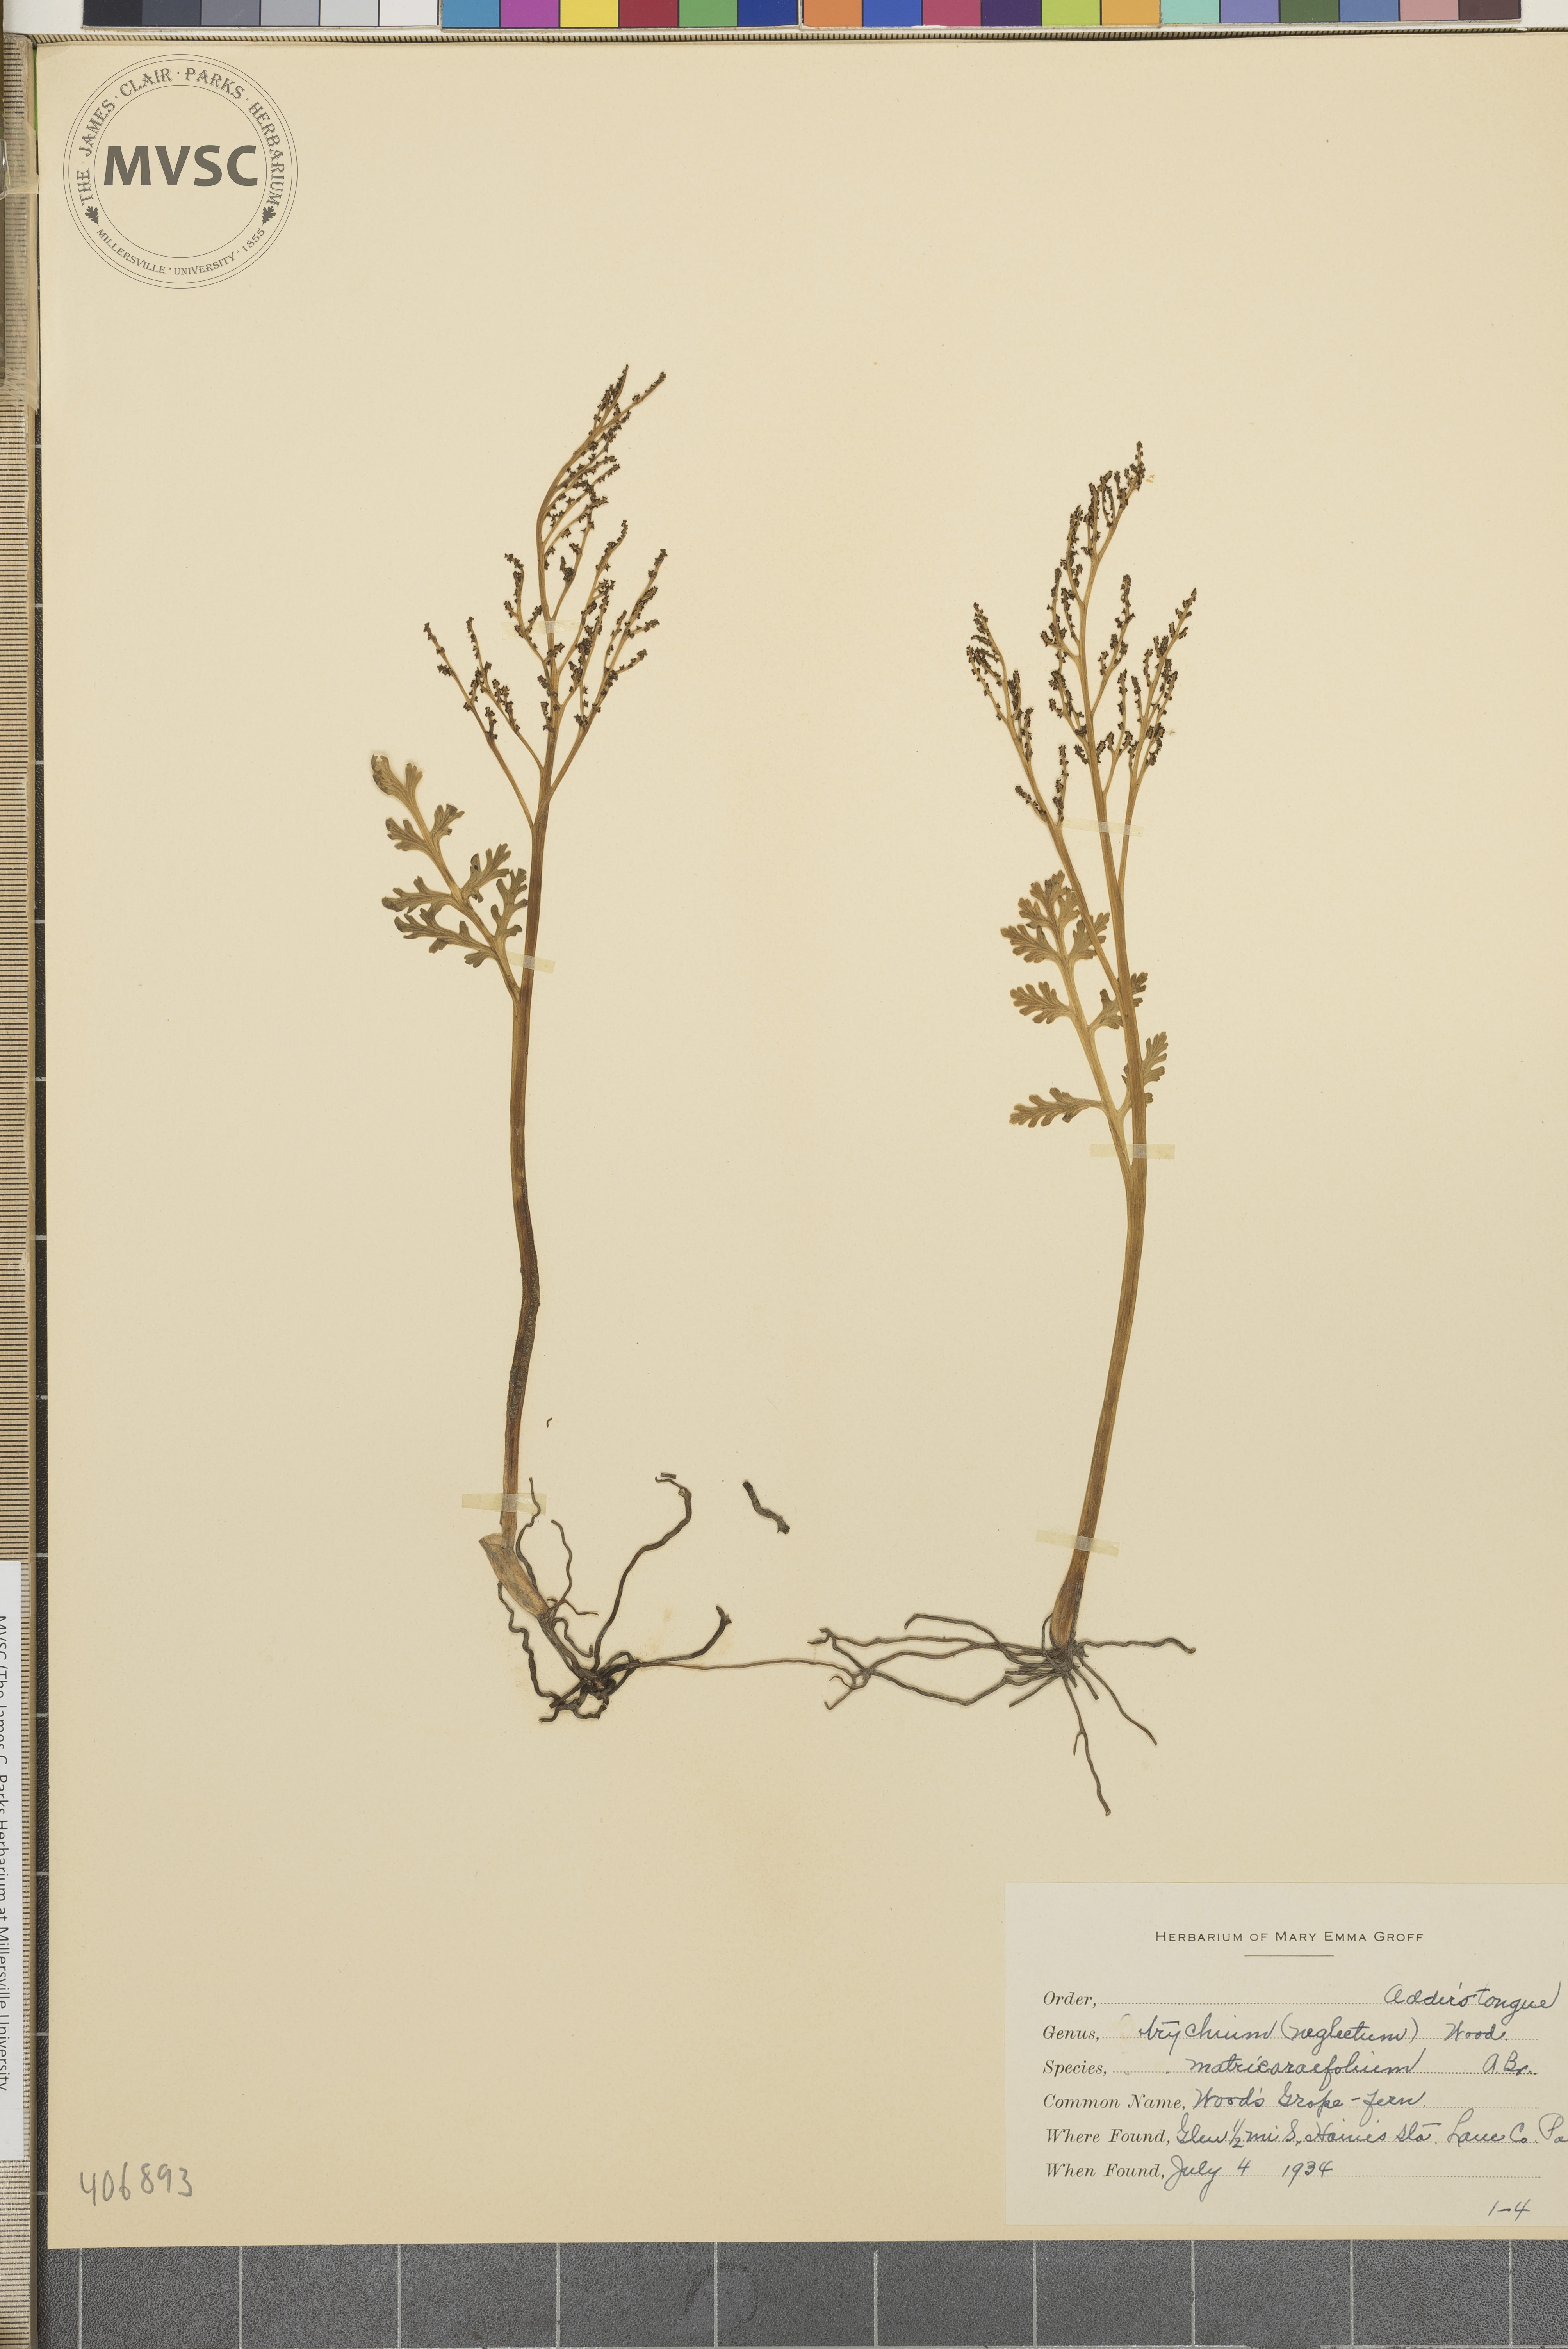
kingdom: Plantae
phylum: Tracheophyta
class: Polypodiopsida
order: Ophioglossales
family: Ophioglossaceae
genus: Botrychium
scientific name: Botrychium matricariifolium
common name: Branched moonwort
